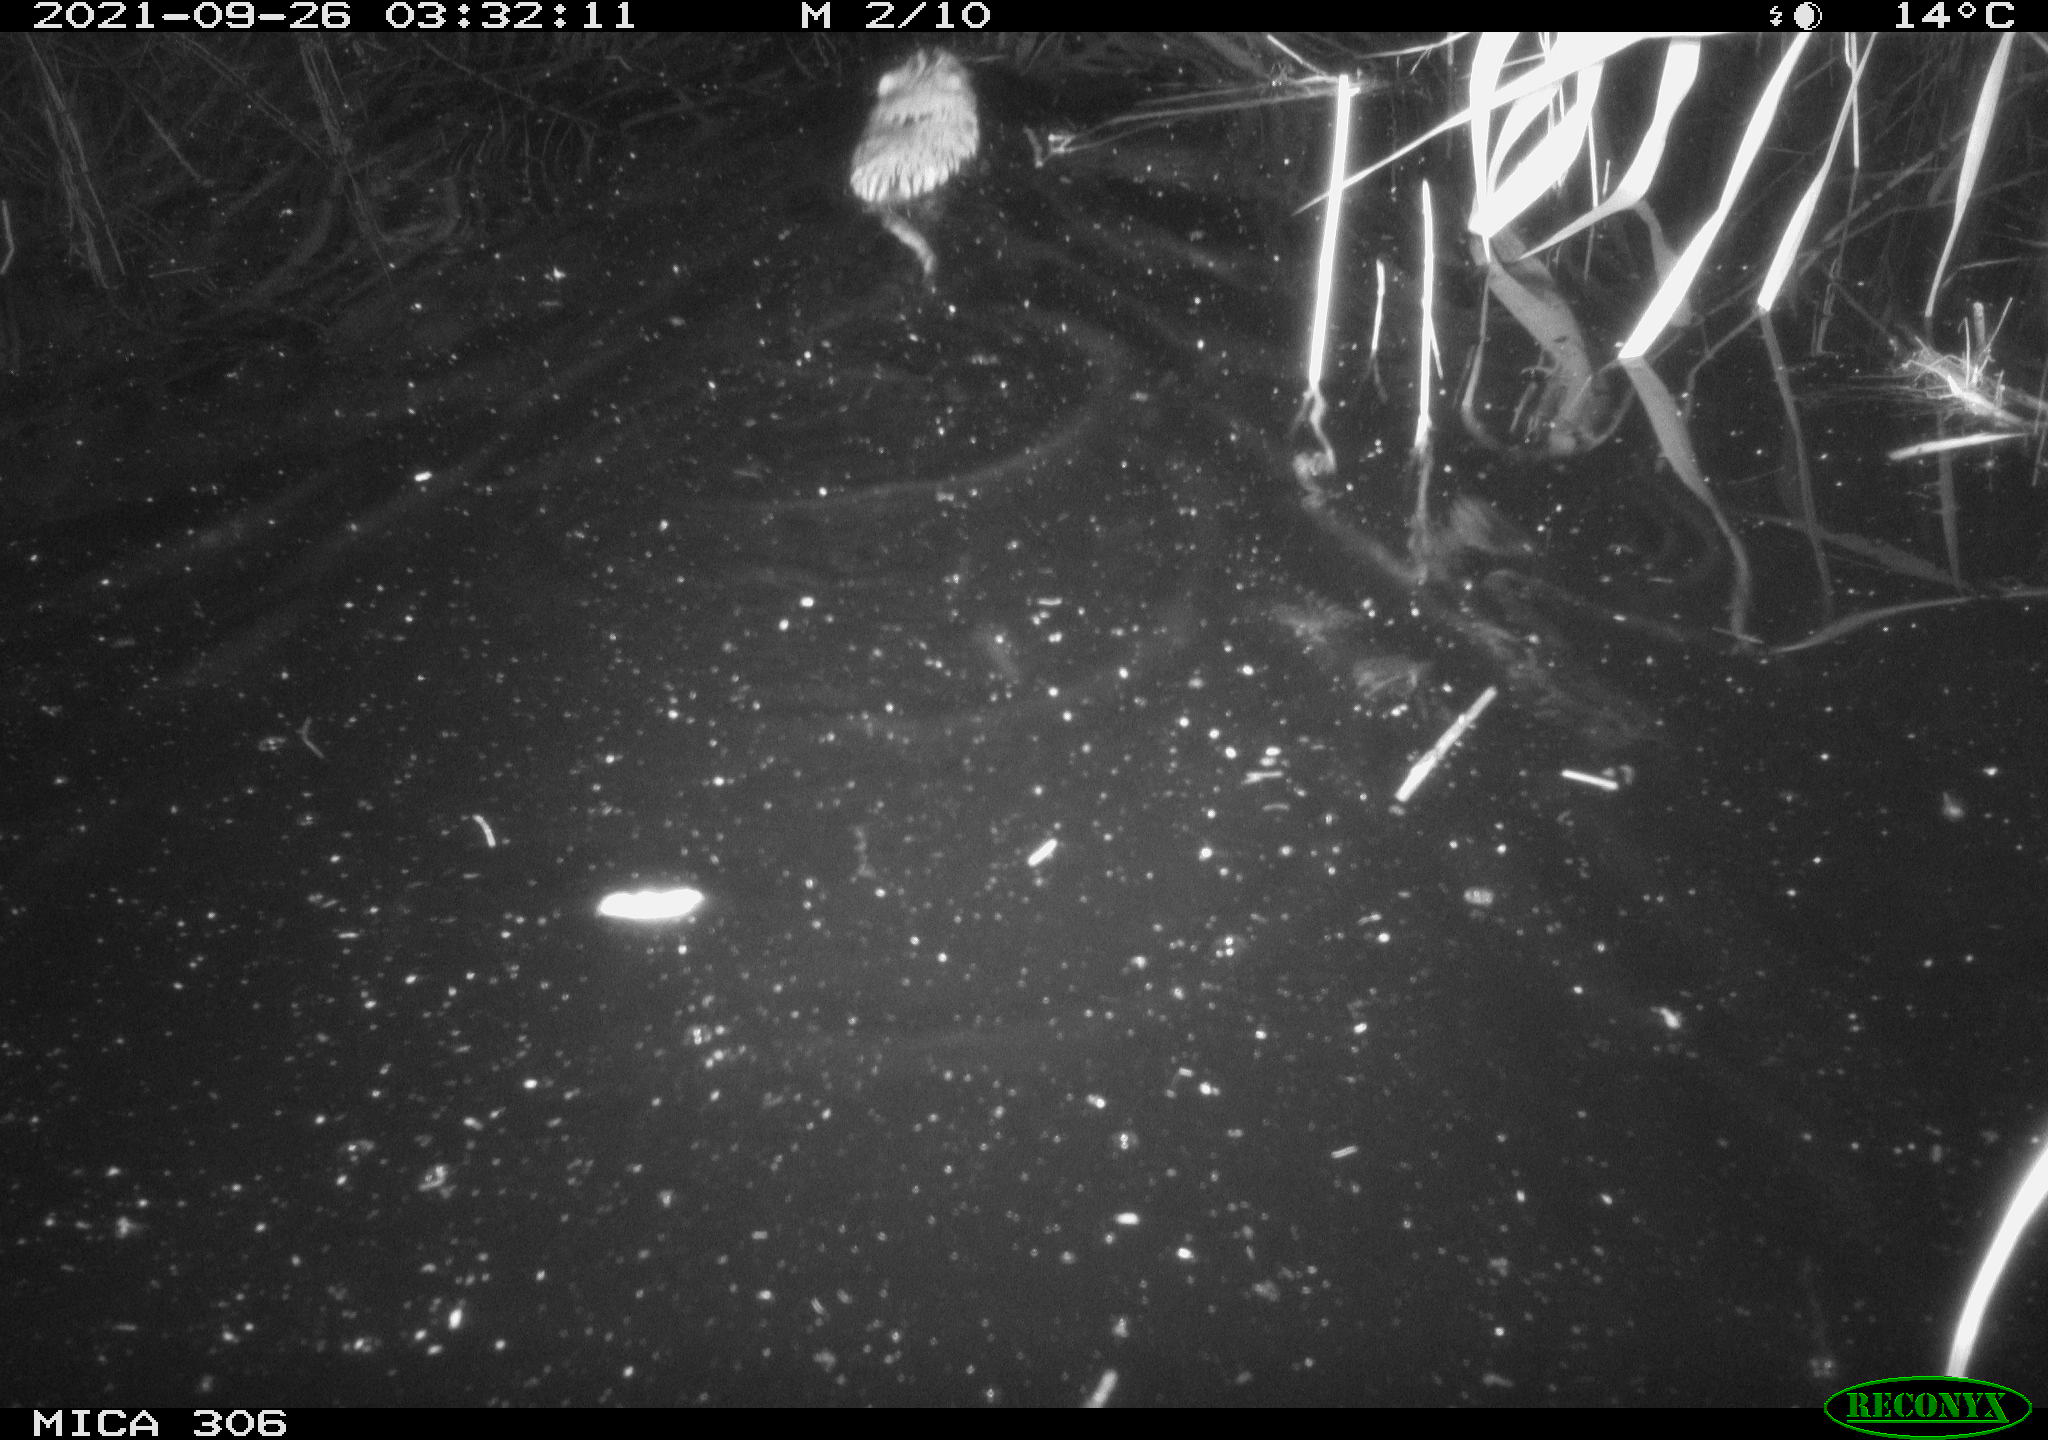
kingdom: Animalia
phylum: Chordata
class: Mammalia
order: Rodentia
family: Cricetidae
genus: Ondatra
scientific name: Ondatra zibethicus
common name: Muskrat
